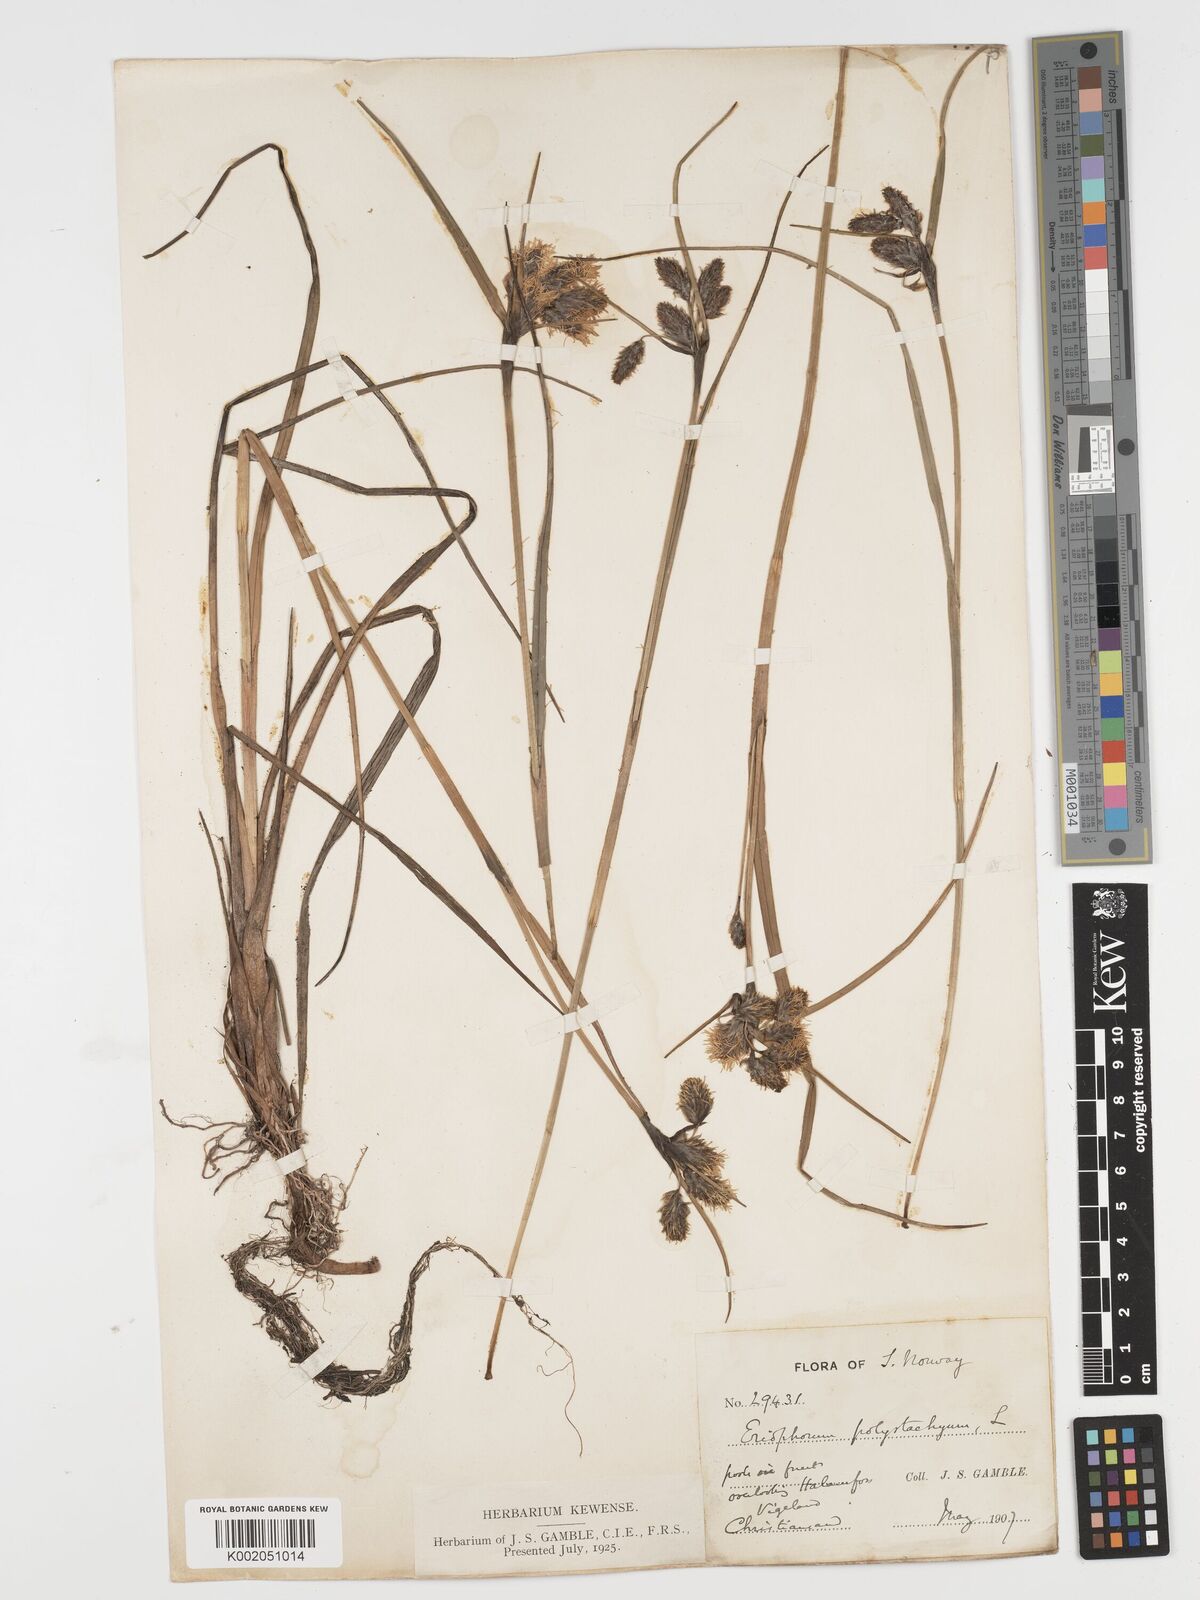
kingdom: Plantae
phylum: Tracheophyta
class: Liliopsida
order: Poales
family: Cyperaceae
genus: Eriophorum
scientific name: Eriophorum angustifolium
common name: Common cottongrass
